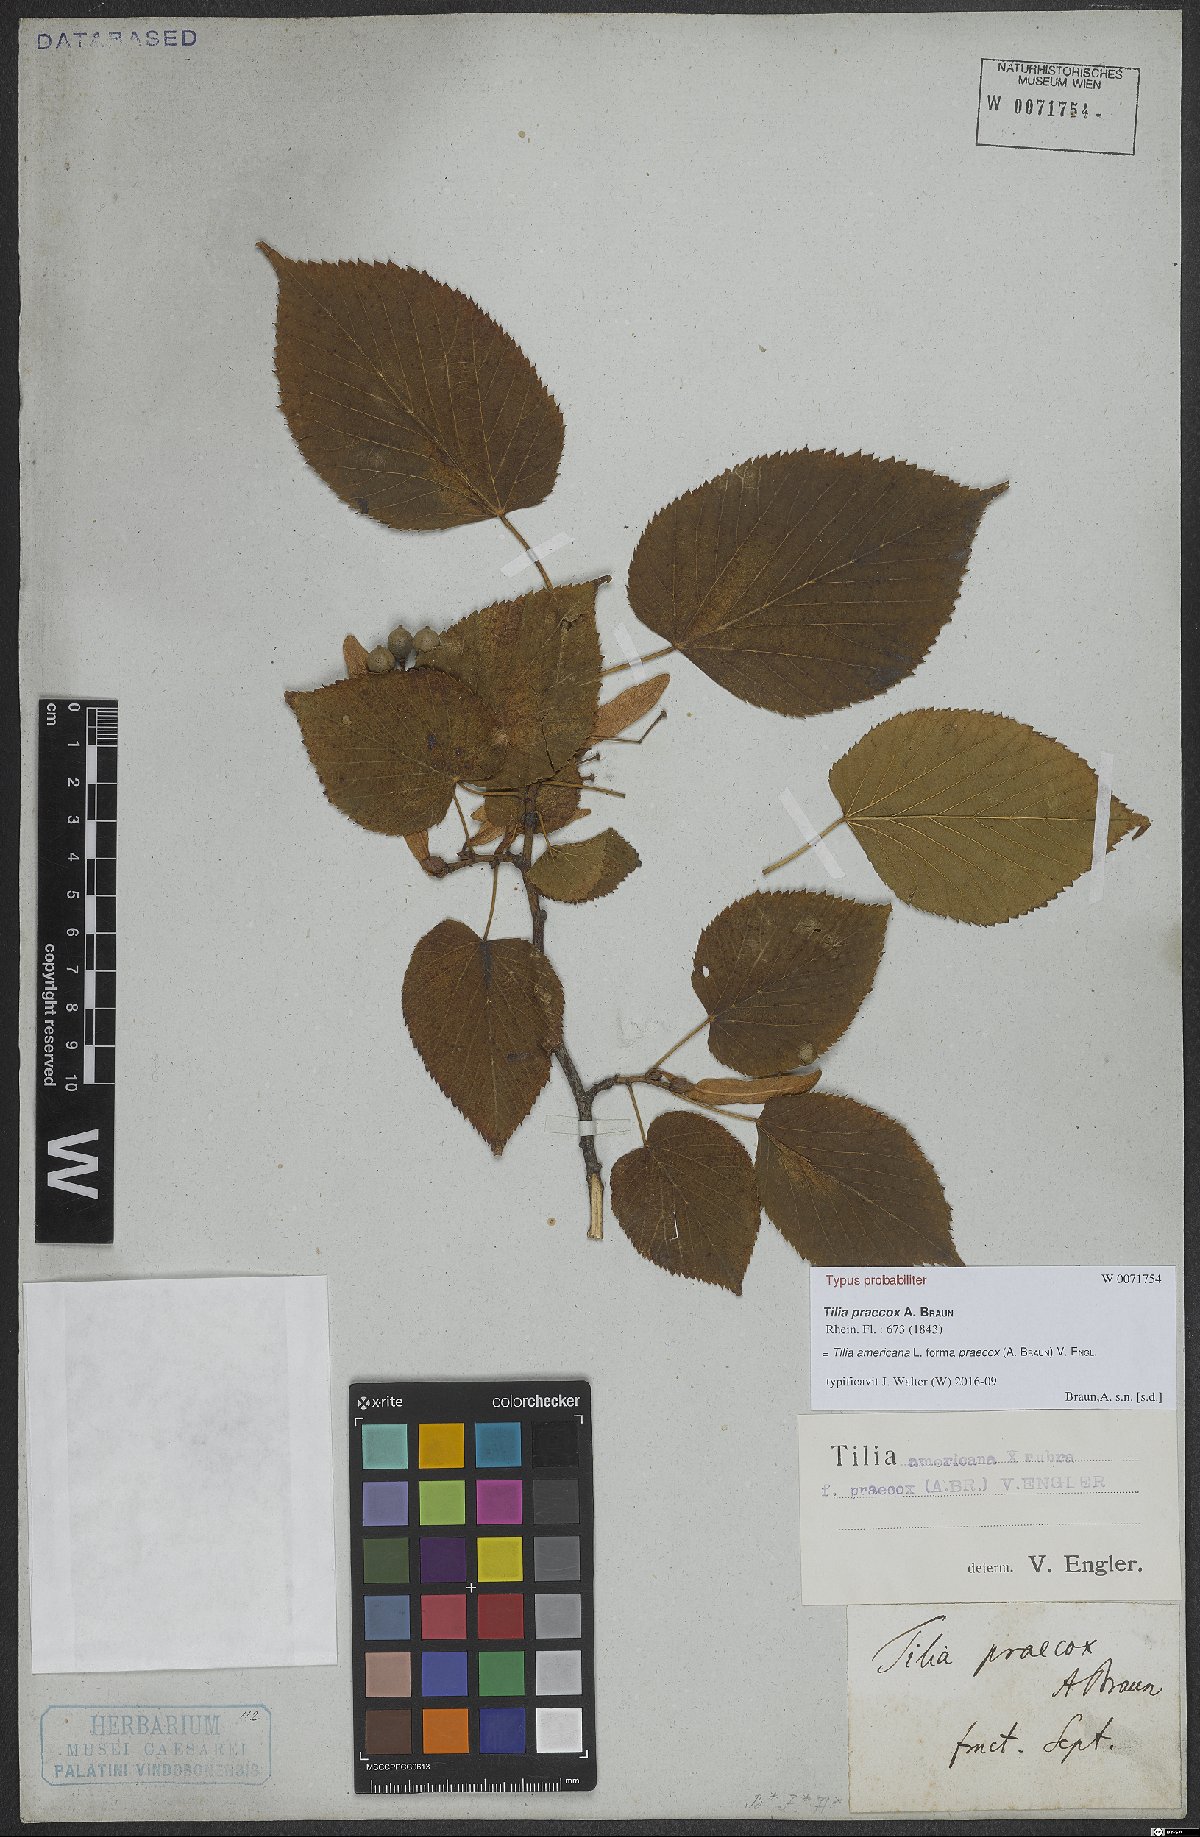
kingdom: Plantae
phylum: Tracheophyta
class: Magnoliopsida
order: Malvales
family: Malvaceae
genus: Tilia
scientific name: Tilia flaccida
